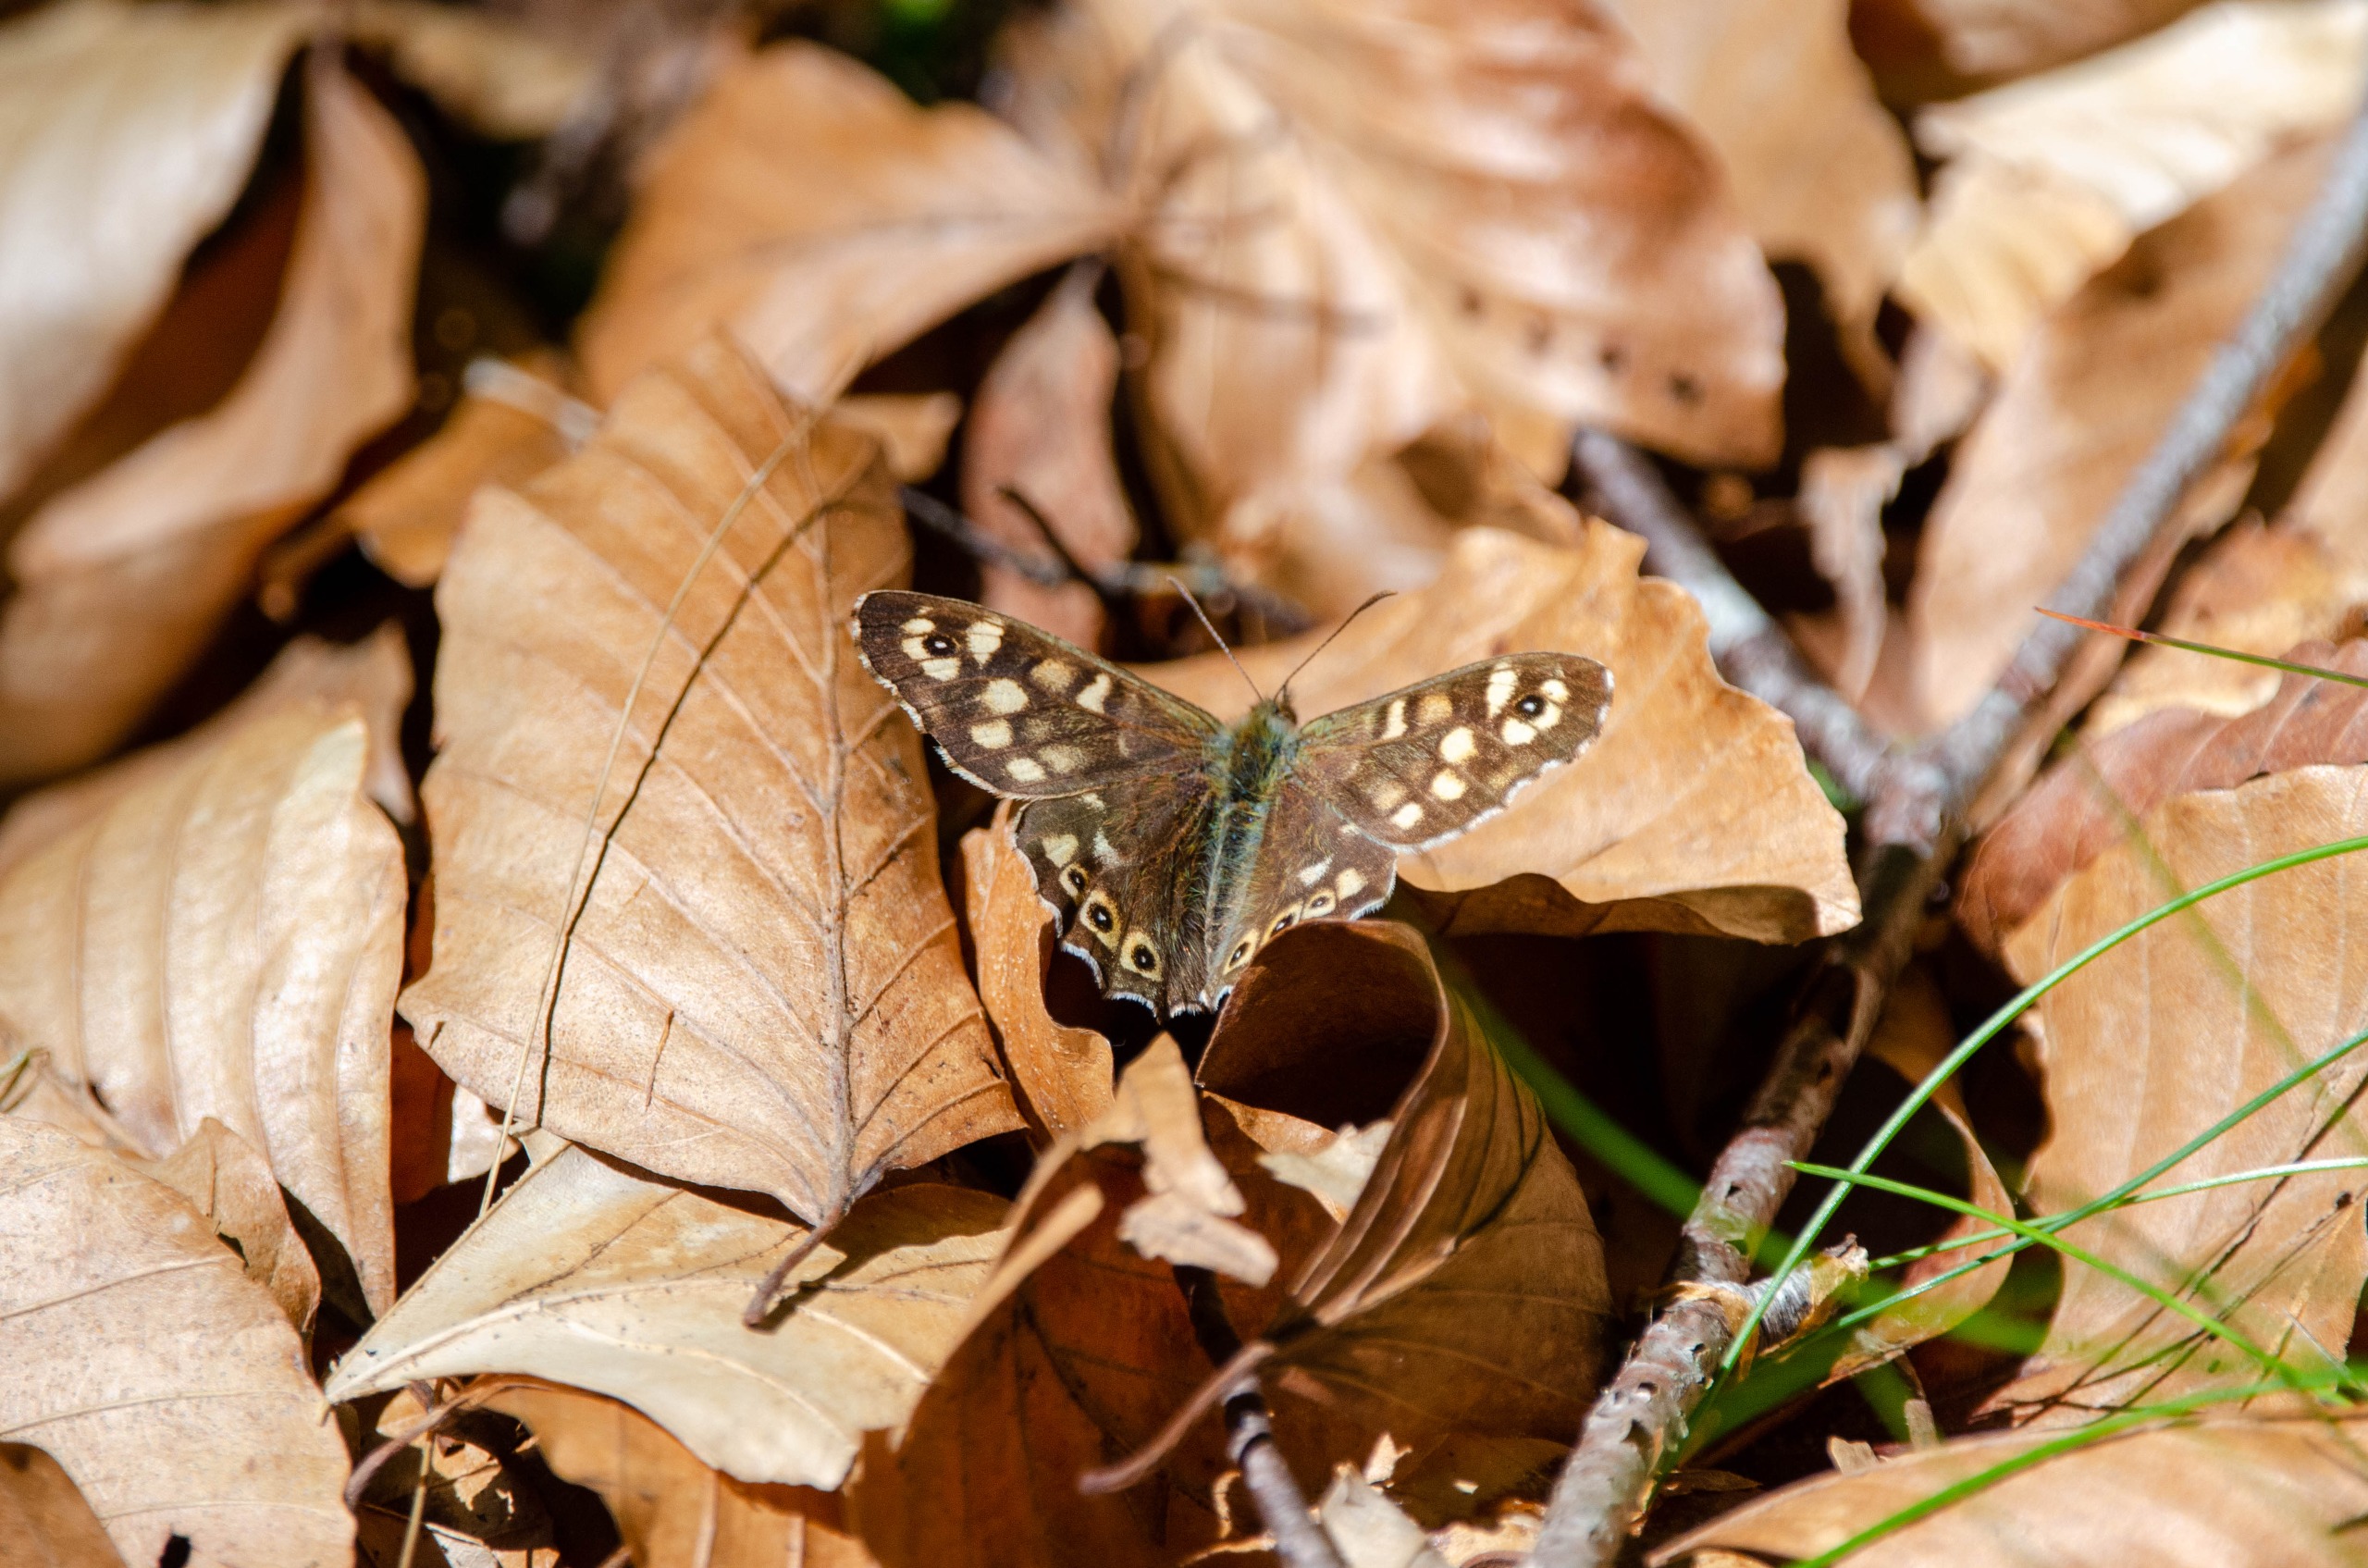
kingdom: Animalia
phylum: Arthropoda
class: Insecta
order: Lepidoptera
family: Nymphalidae
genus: Pararge
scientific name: Pararge aegeria
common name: Skovrandøje
